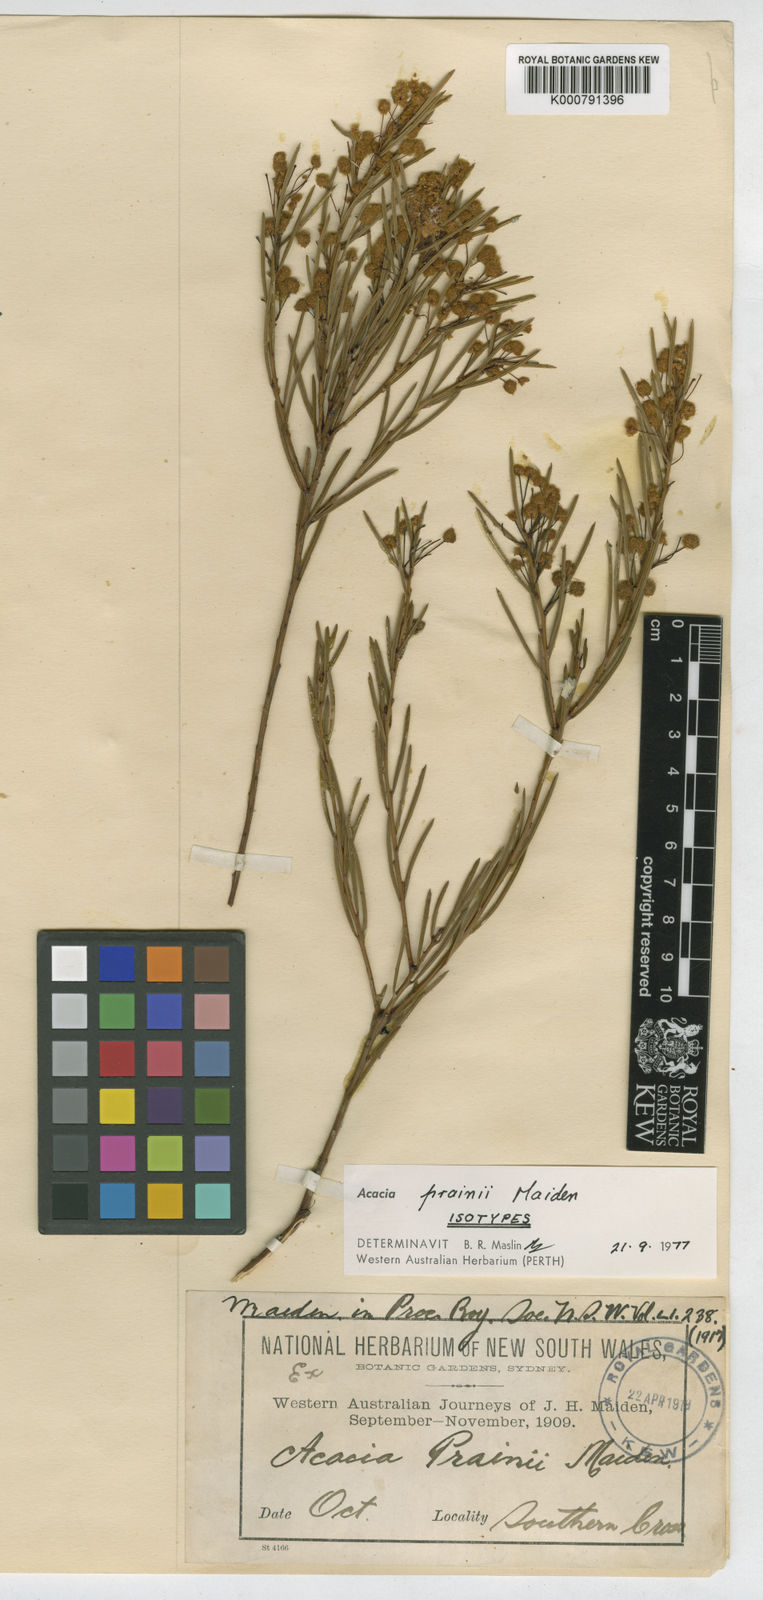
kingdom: Plantae
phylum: Tracheophyta
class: Magnoliopsida
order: Fabales
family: Fabaceae
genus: Acacia
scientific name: Acacia prainii
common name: Prain's wattle
